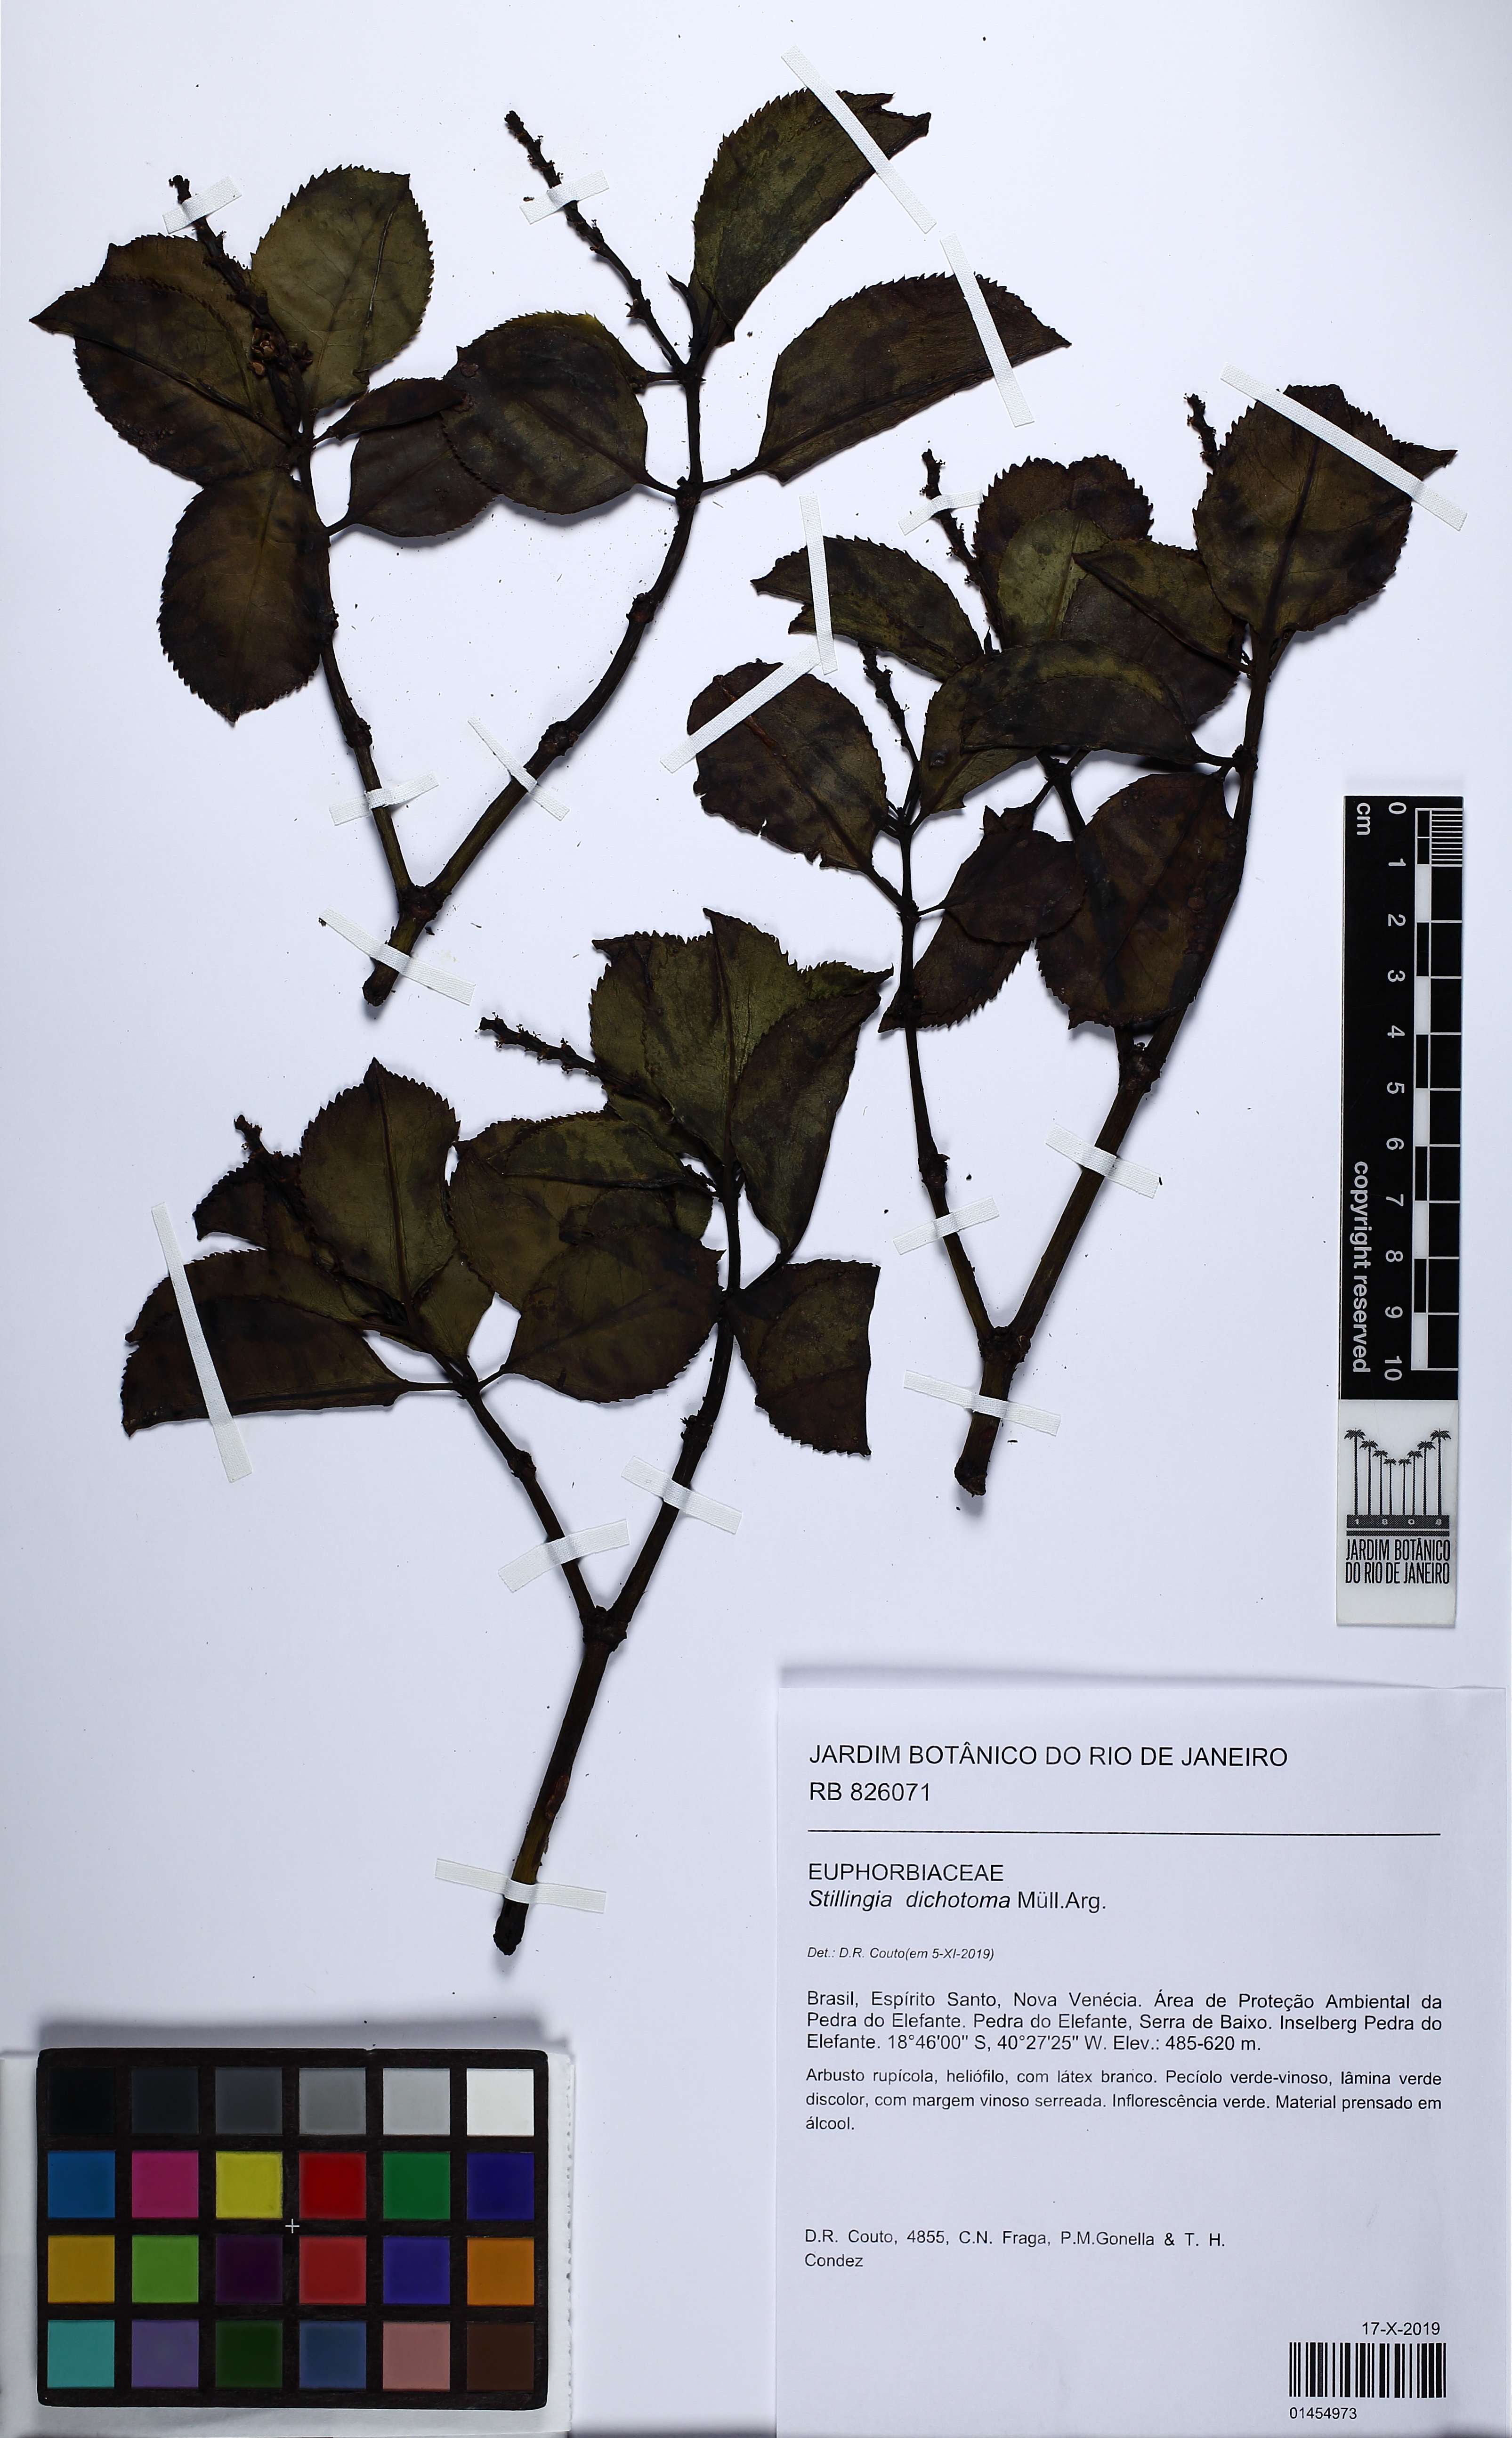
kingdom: Plantae
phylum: Tracheophyta
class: Magnoliopsida
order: Malpighiales
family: Euphorbiaceae
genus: Stillingia
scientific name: Stillingia dichotoma
